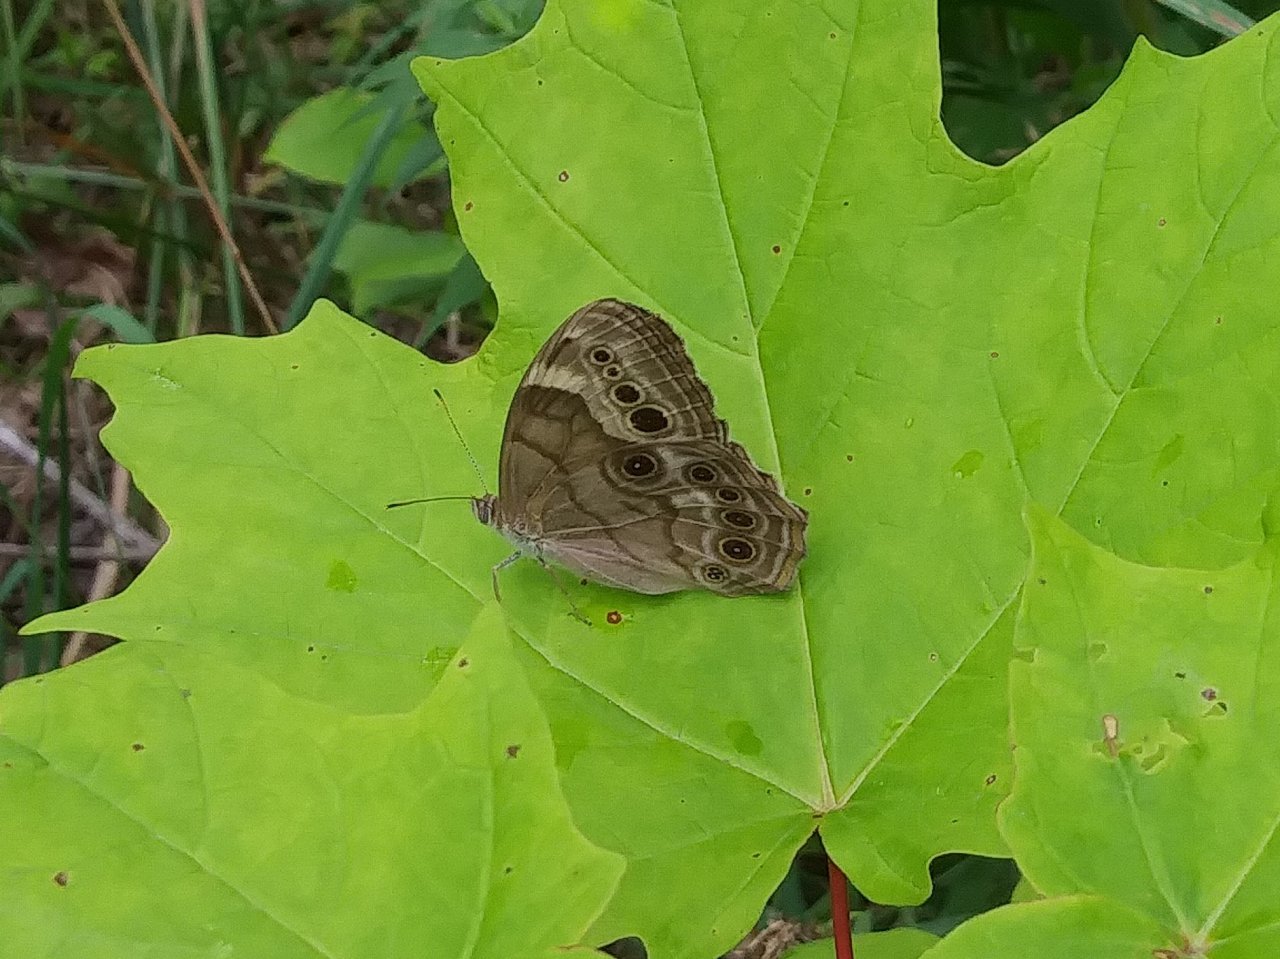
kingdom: Animalia
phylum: Arthropoda
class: Insecta
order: Lepidoptera
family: Nymphalidae
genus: Lethe
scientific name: Lethe anthedon
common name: Northern Pearly-Eye
